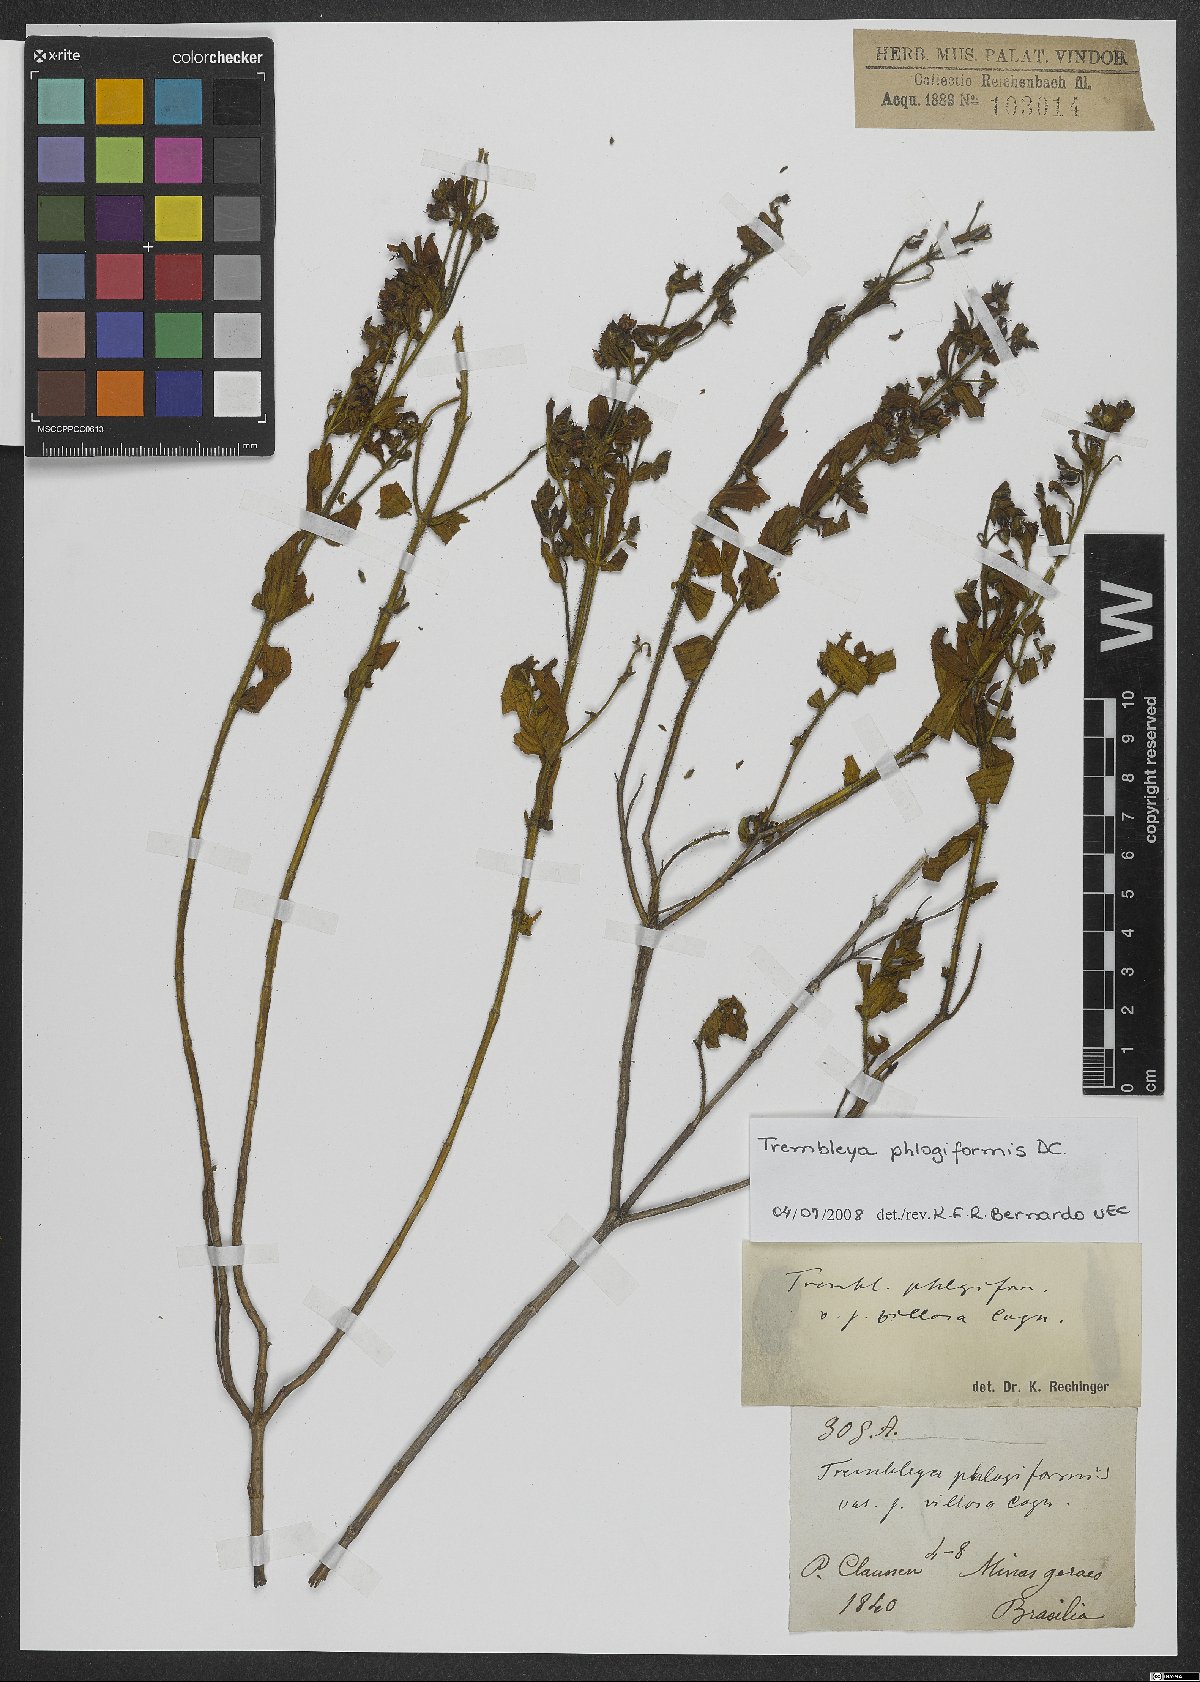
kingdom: Plantae
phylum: Tracheophyta
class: Magnoliopsida
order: Myrtales
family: Melastomataceae
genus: Microlicia
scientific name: Microlicia phlogiformis
